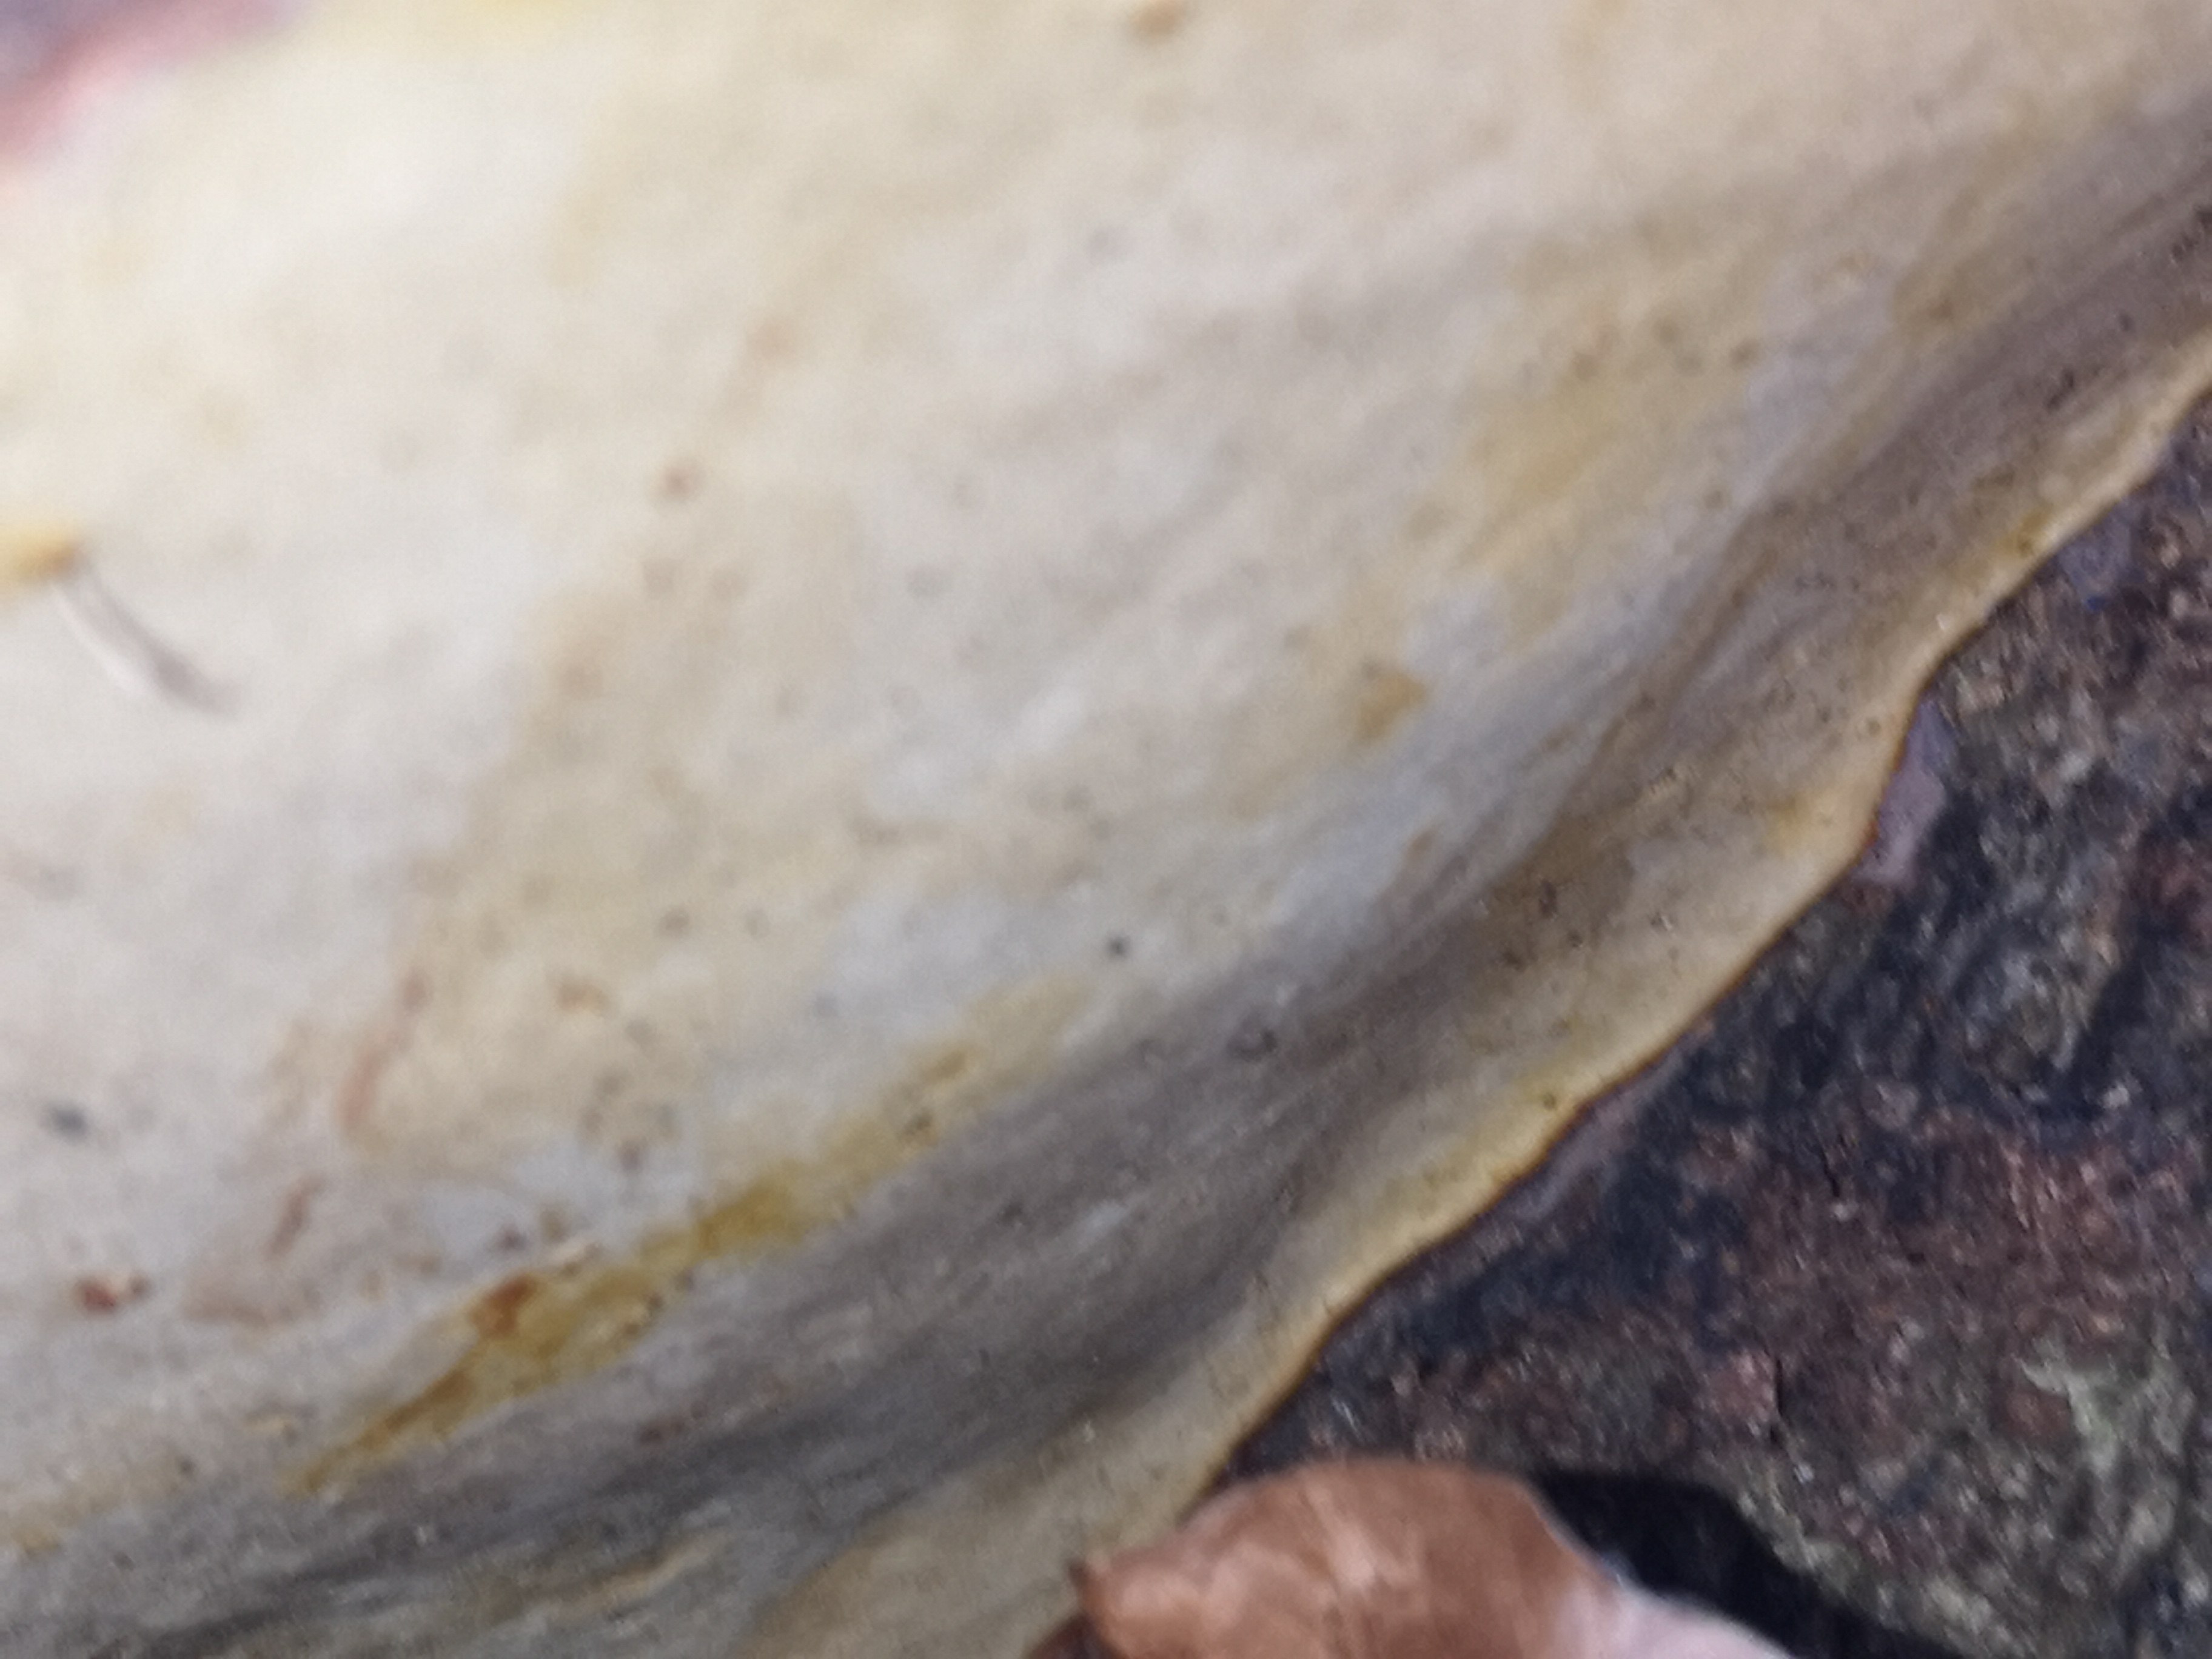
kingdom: Fungi
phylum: Basidiomycota
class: Agaricomycetes
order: Polyporales
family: Polyporaceae
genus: Ganoderma
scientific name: Ganoderma pfeifferi
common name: kobberrød lakporesvamp
